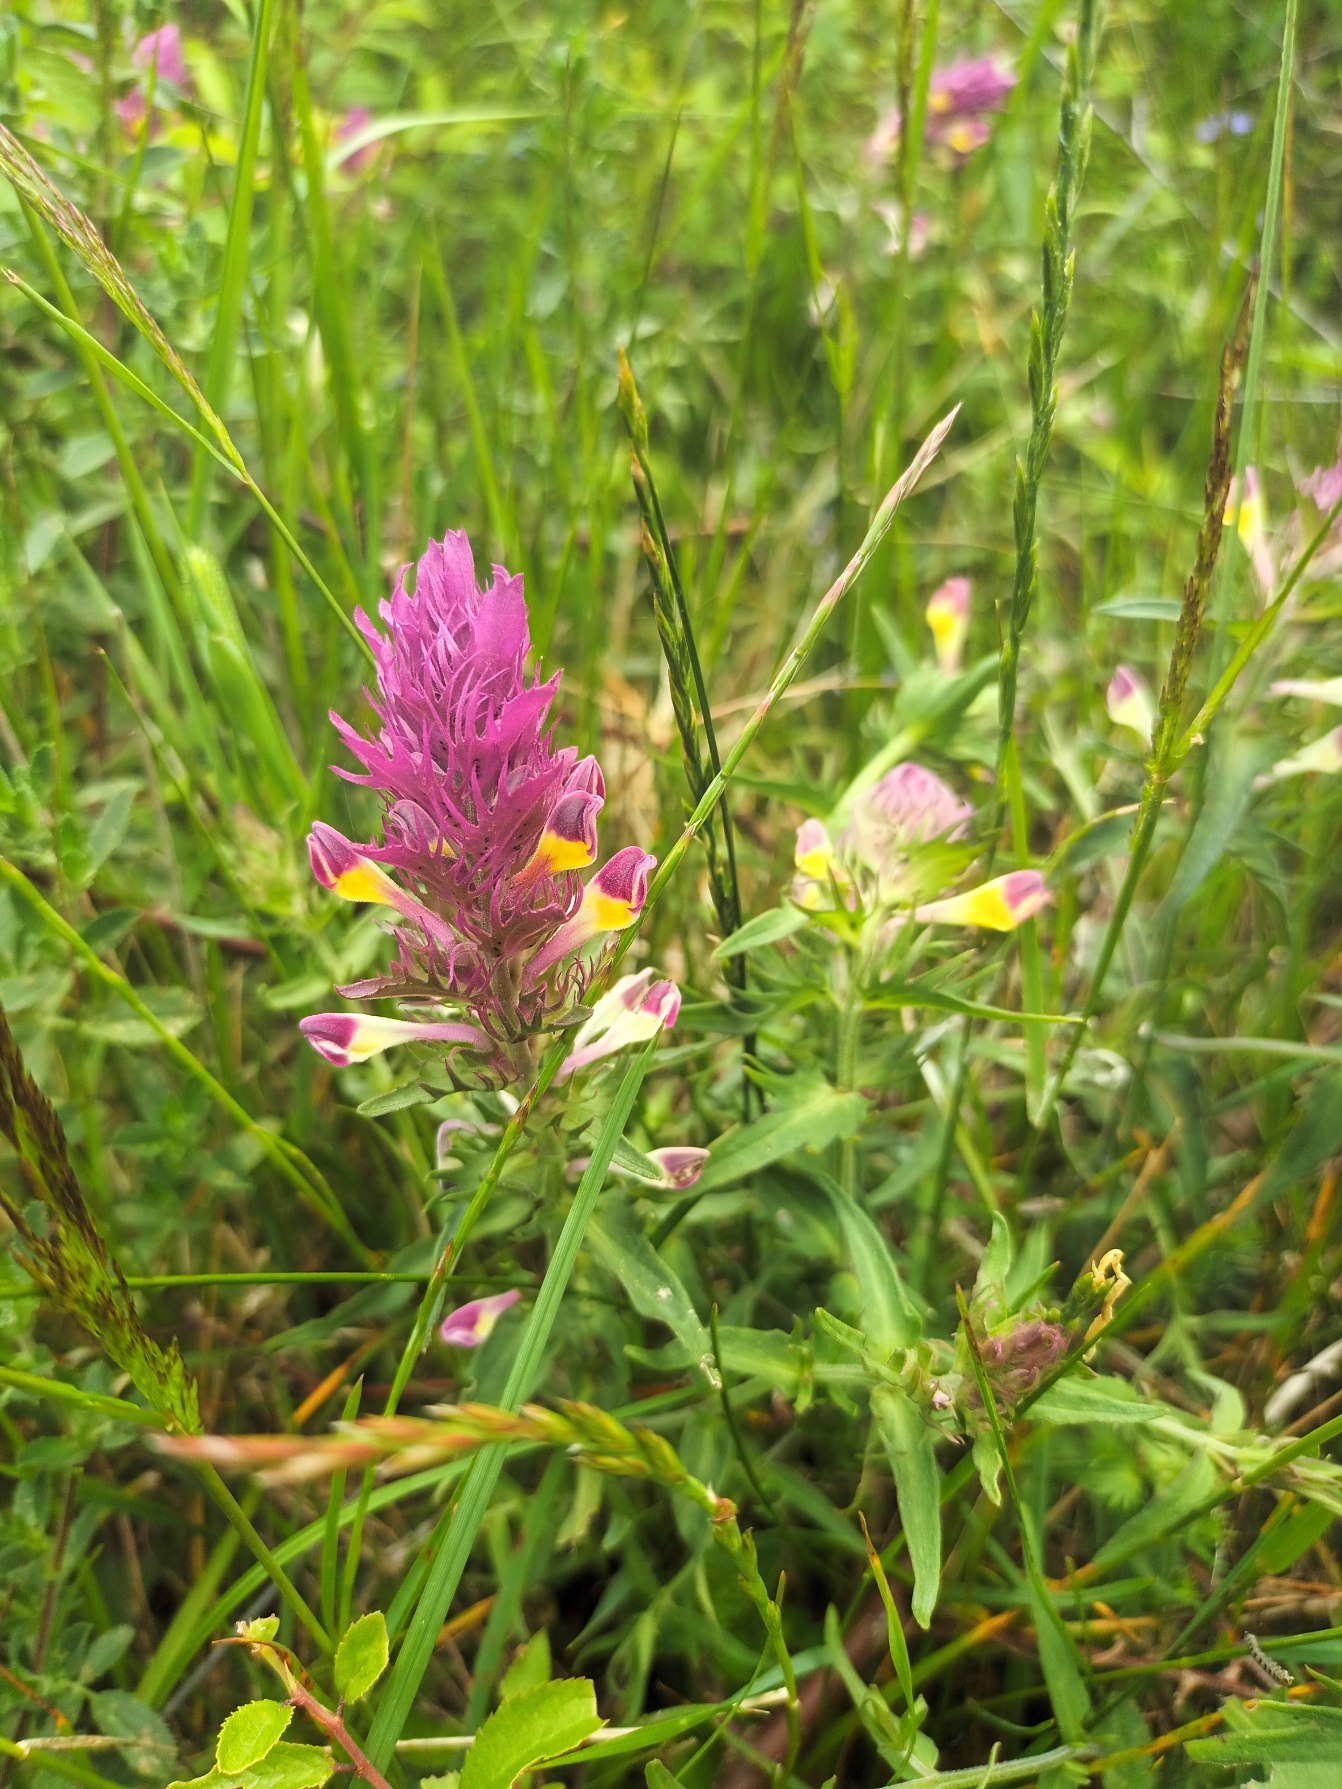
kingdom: Plantae
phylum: Tracheophyta
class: Magnoliopsida
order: Lamiales
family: Orobanchaceae
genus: Melampyrum
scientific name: Melampyrum arvense
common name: Ager-kohvede
